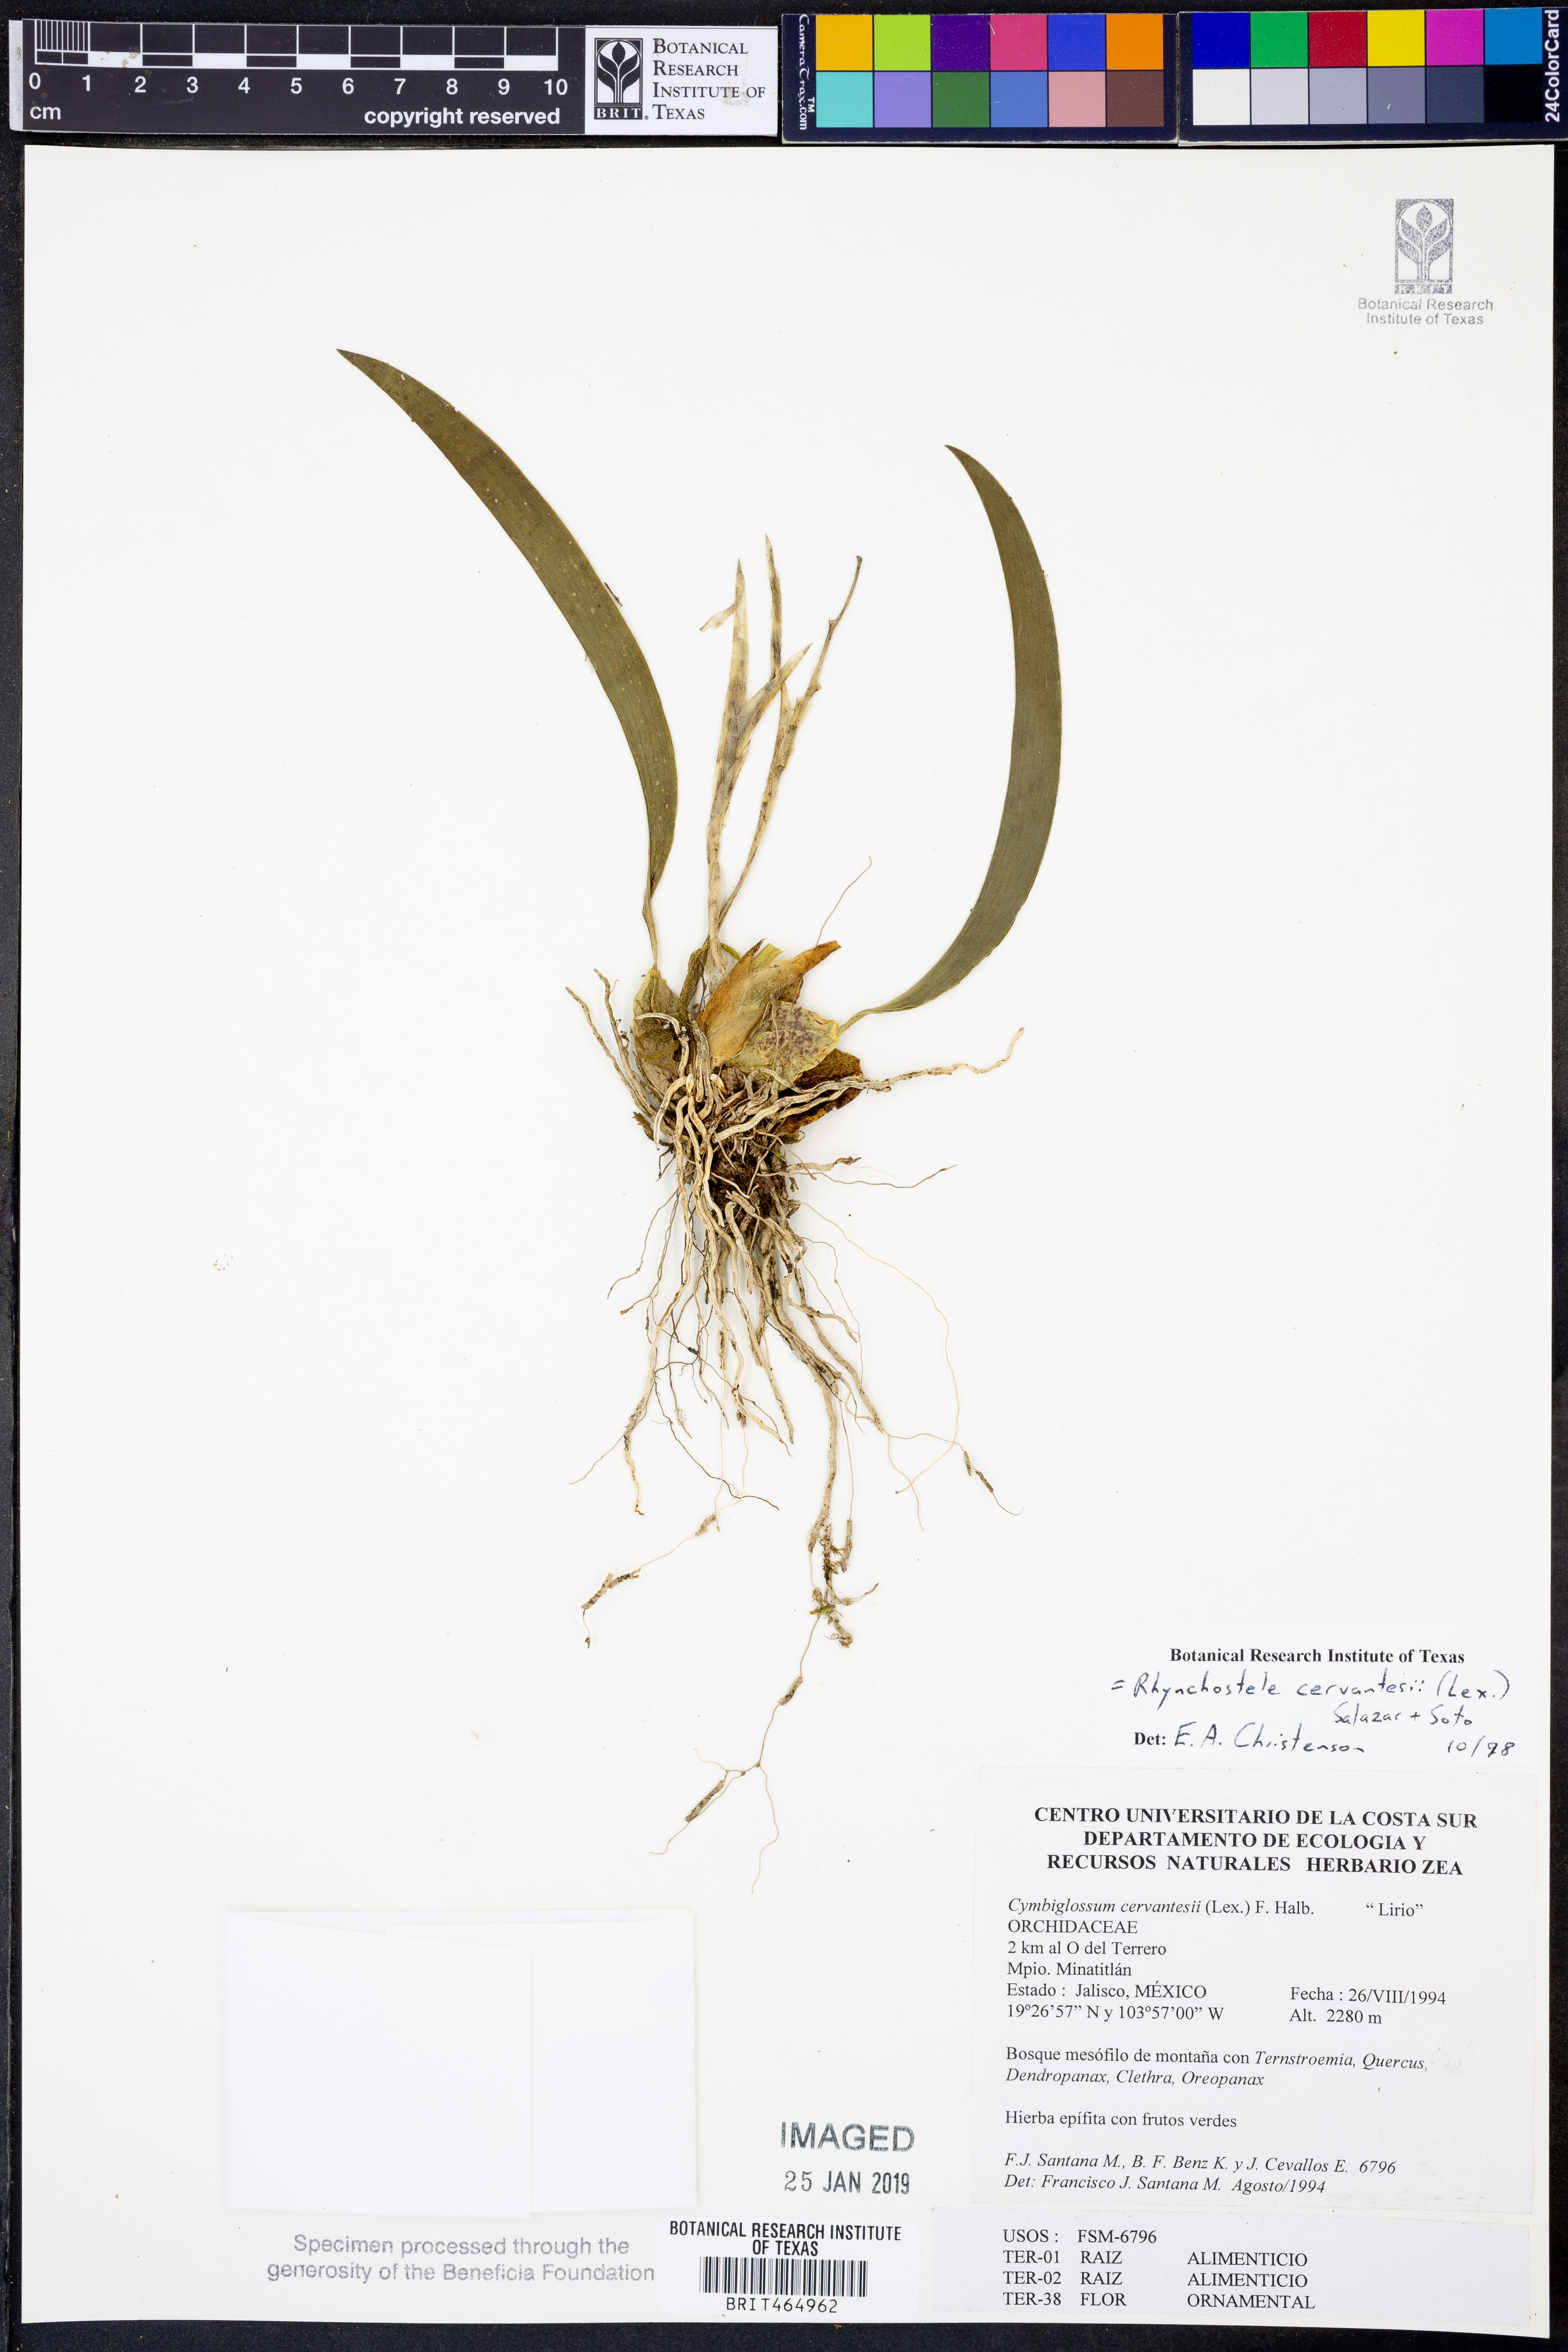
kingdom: Plantae
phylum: Tracheophyta
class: Liliopsida
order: Asparagales
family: Orchidaceae
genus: Rhynchostele
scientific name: Rhynchostele cervantesii
